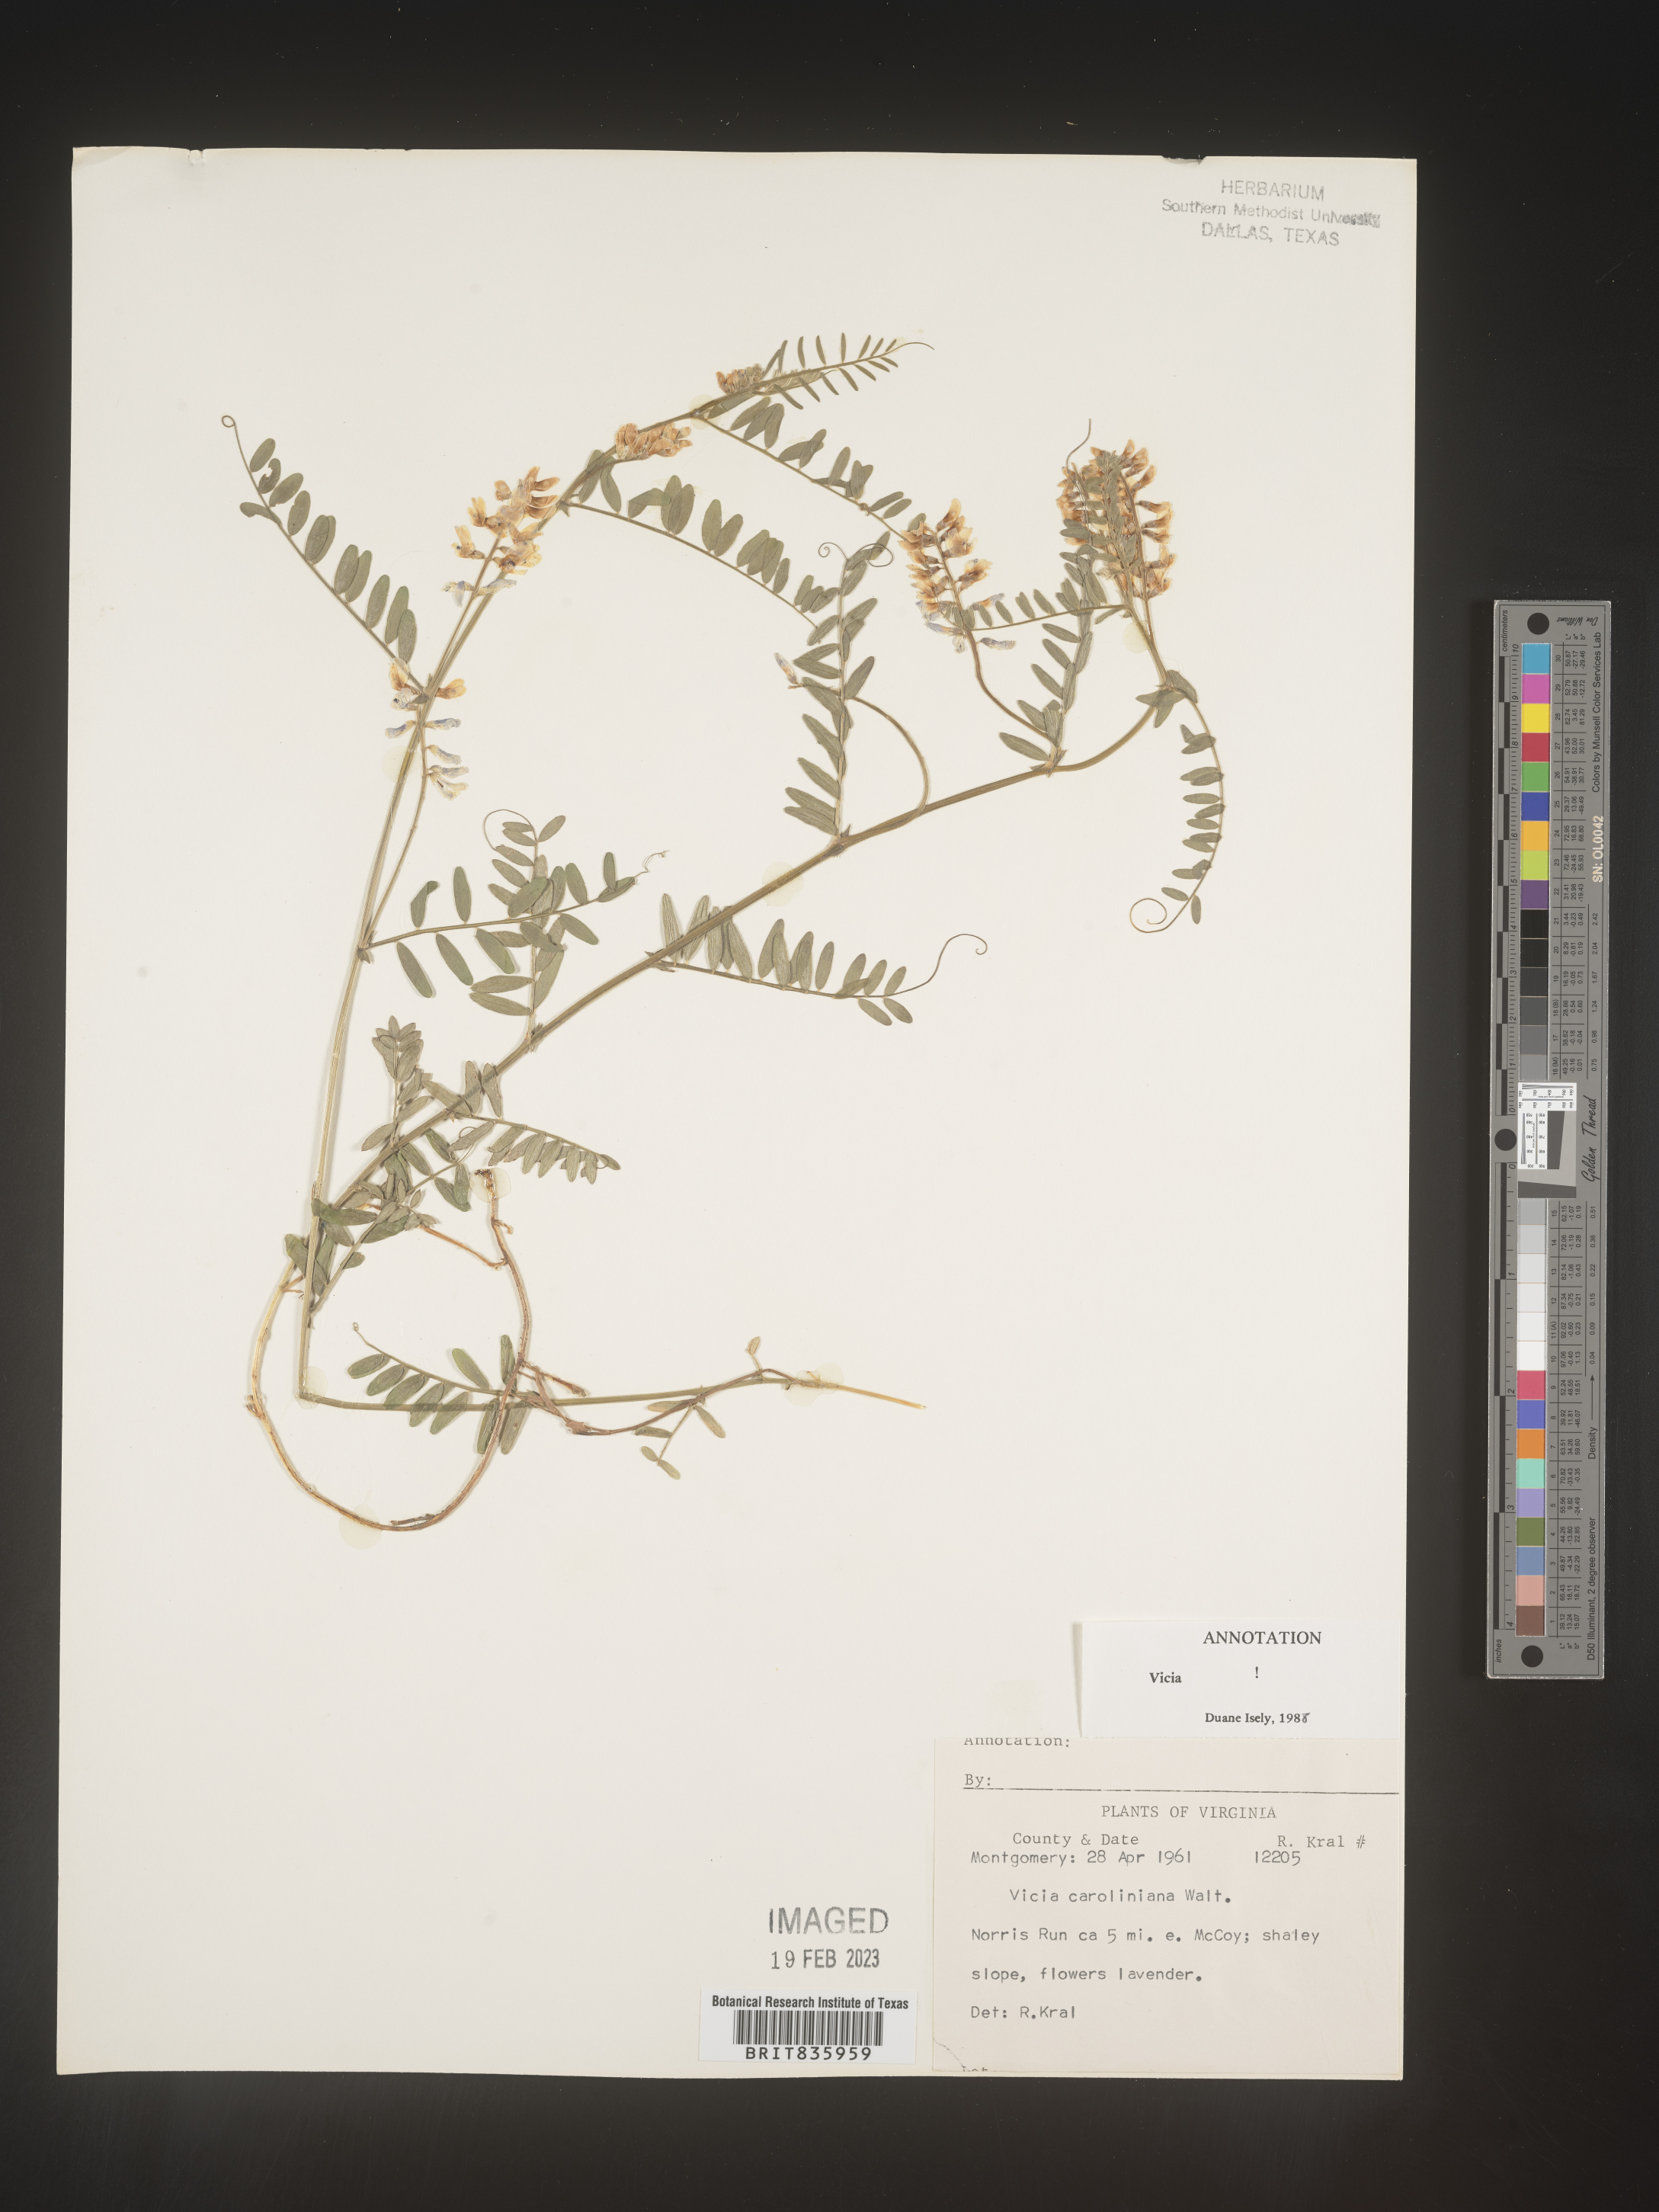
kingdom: Plantae
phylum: Tracheophyta
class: Magnoliopsida
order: Fabales
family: Fabaceae
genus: Vicia
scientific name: Vicia caroliniana
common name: Carolina vetch
